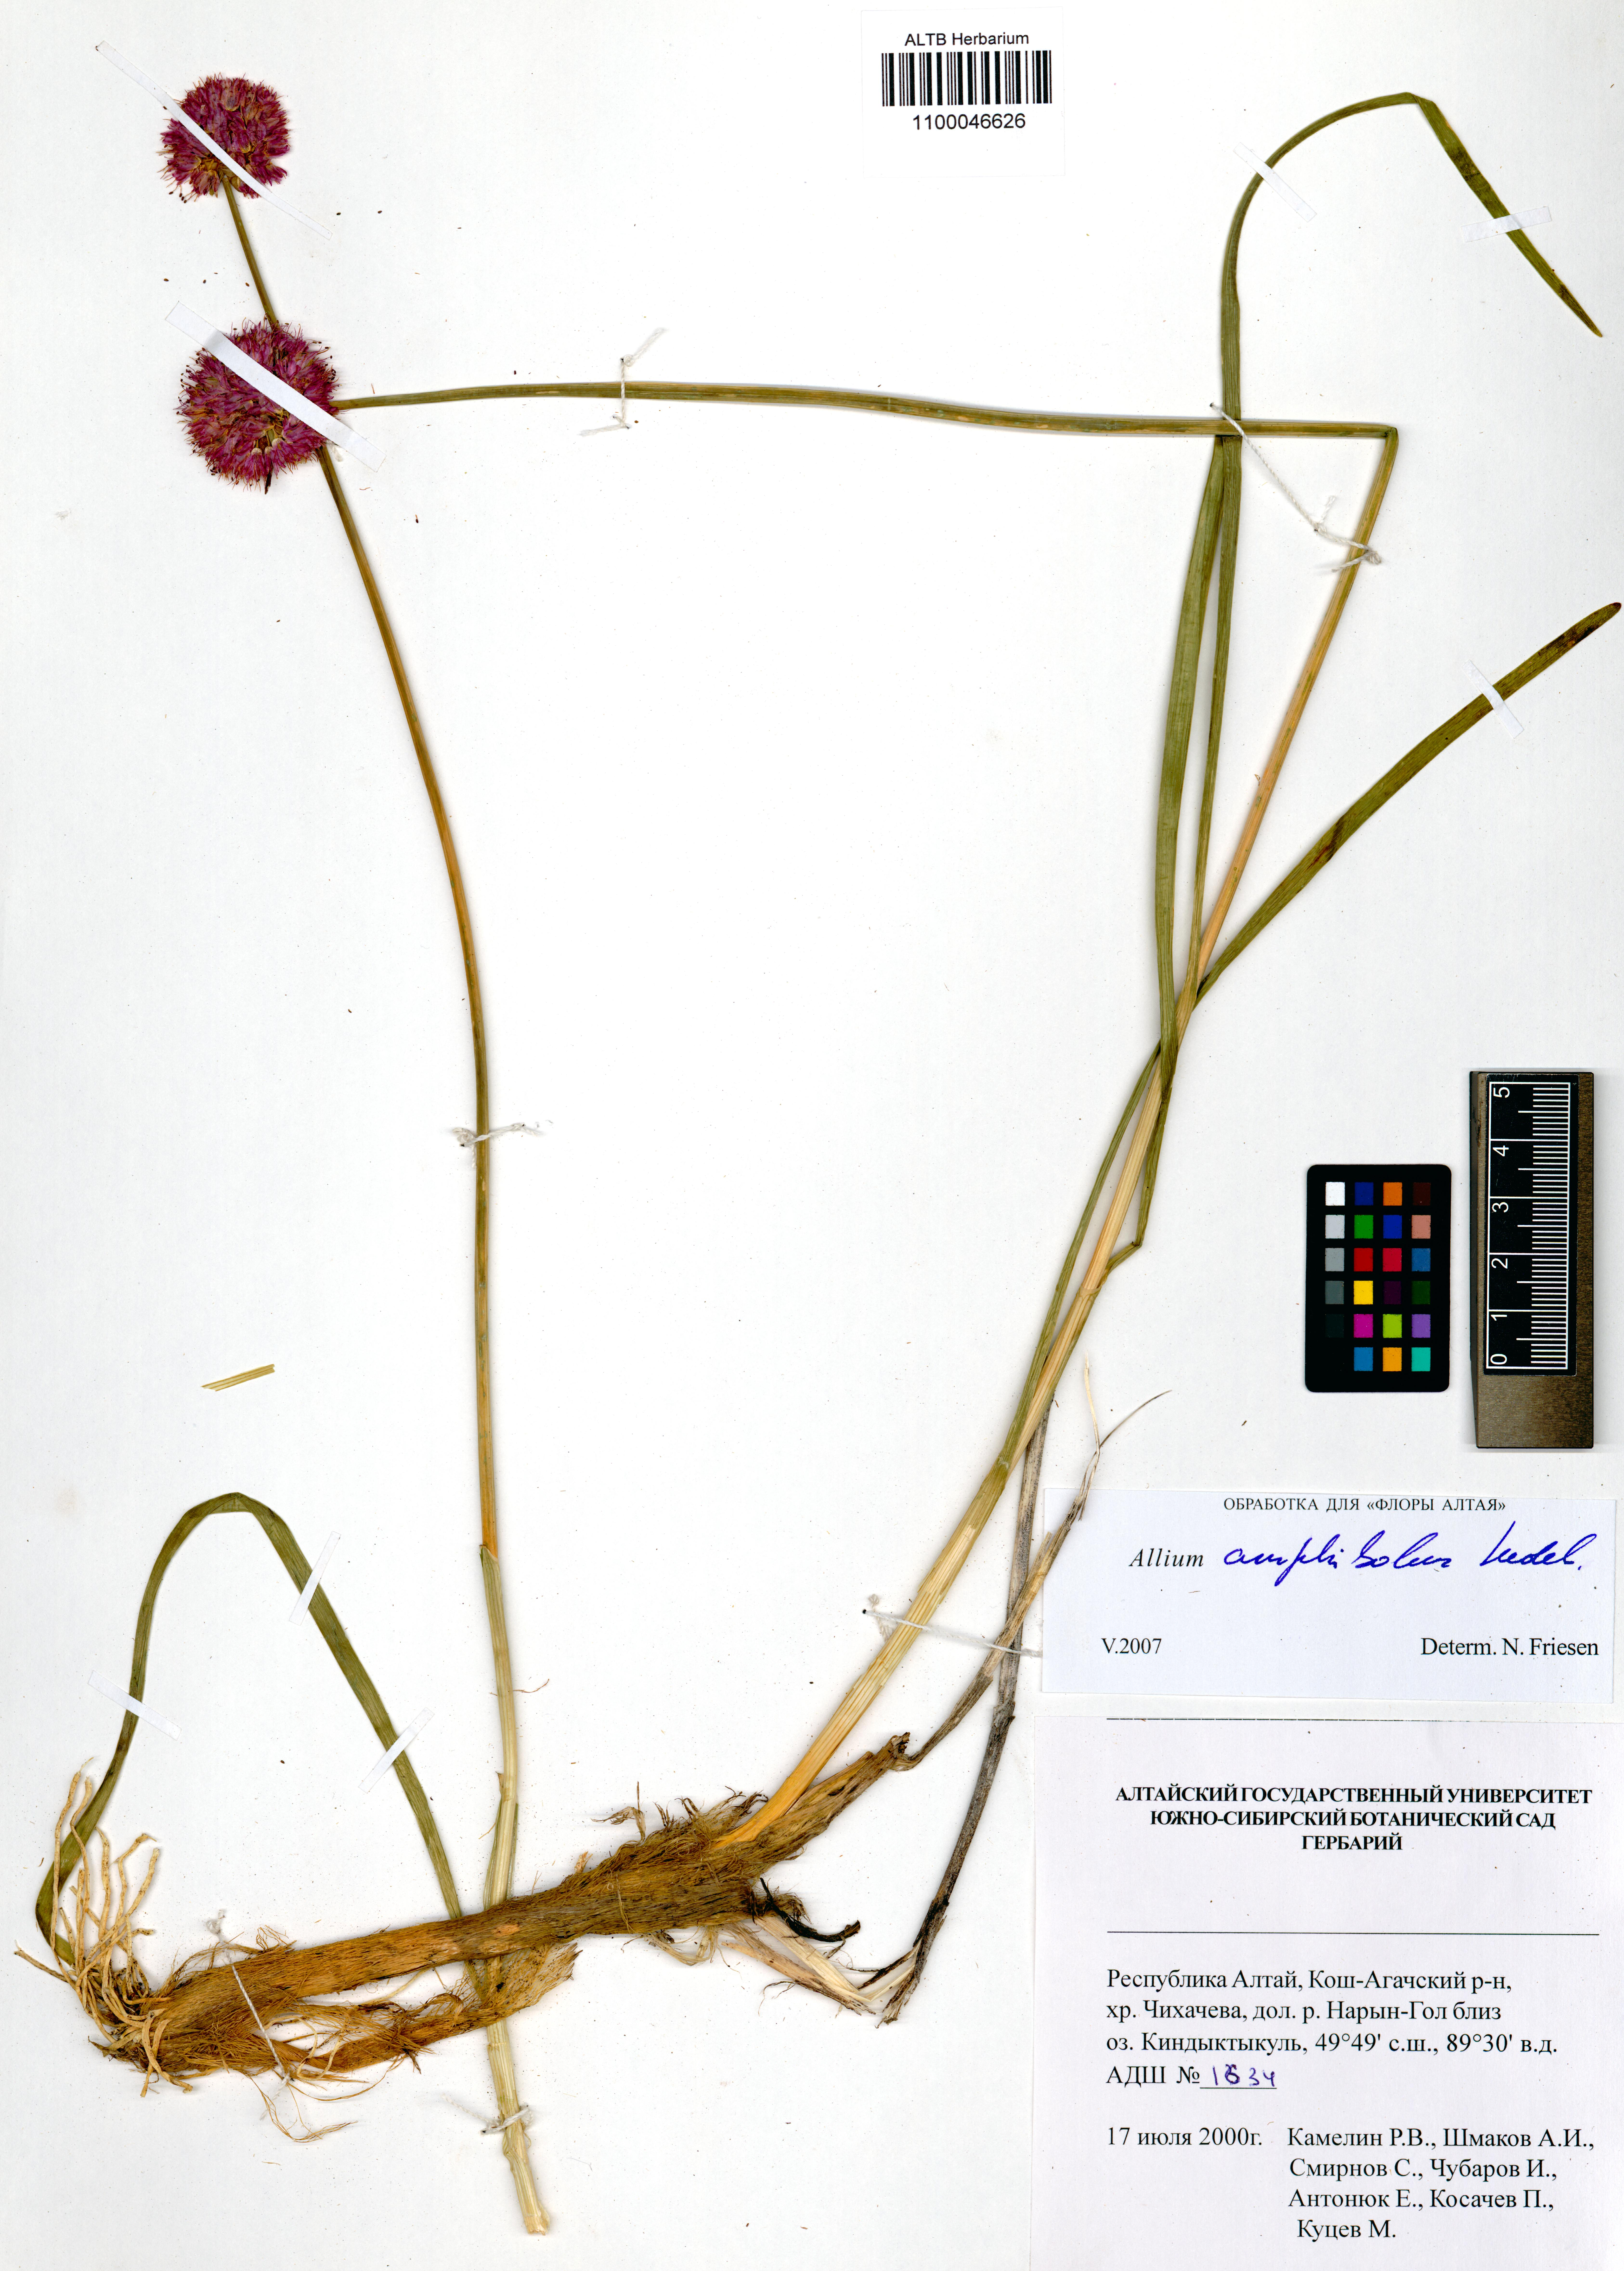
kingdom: Plantae
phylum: Tracheophyta
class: Liliopsida
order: Asparagales
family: Amaryllidaceae
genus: Allium
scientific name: Allium amphibolum
